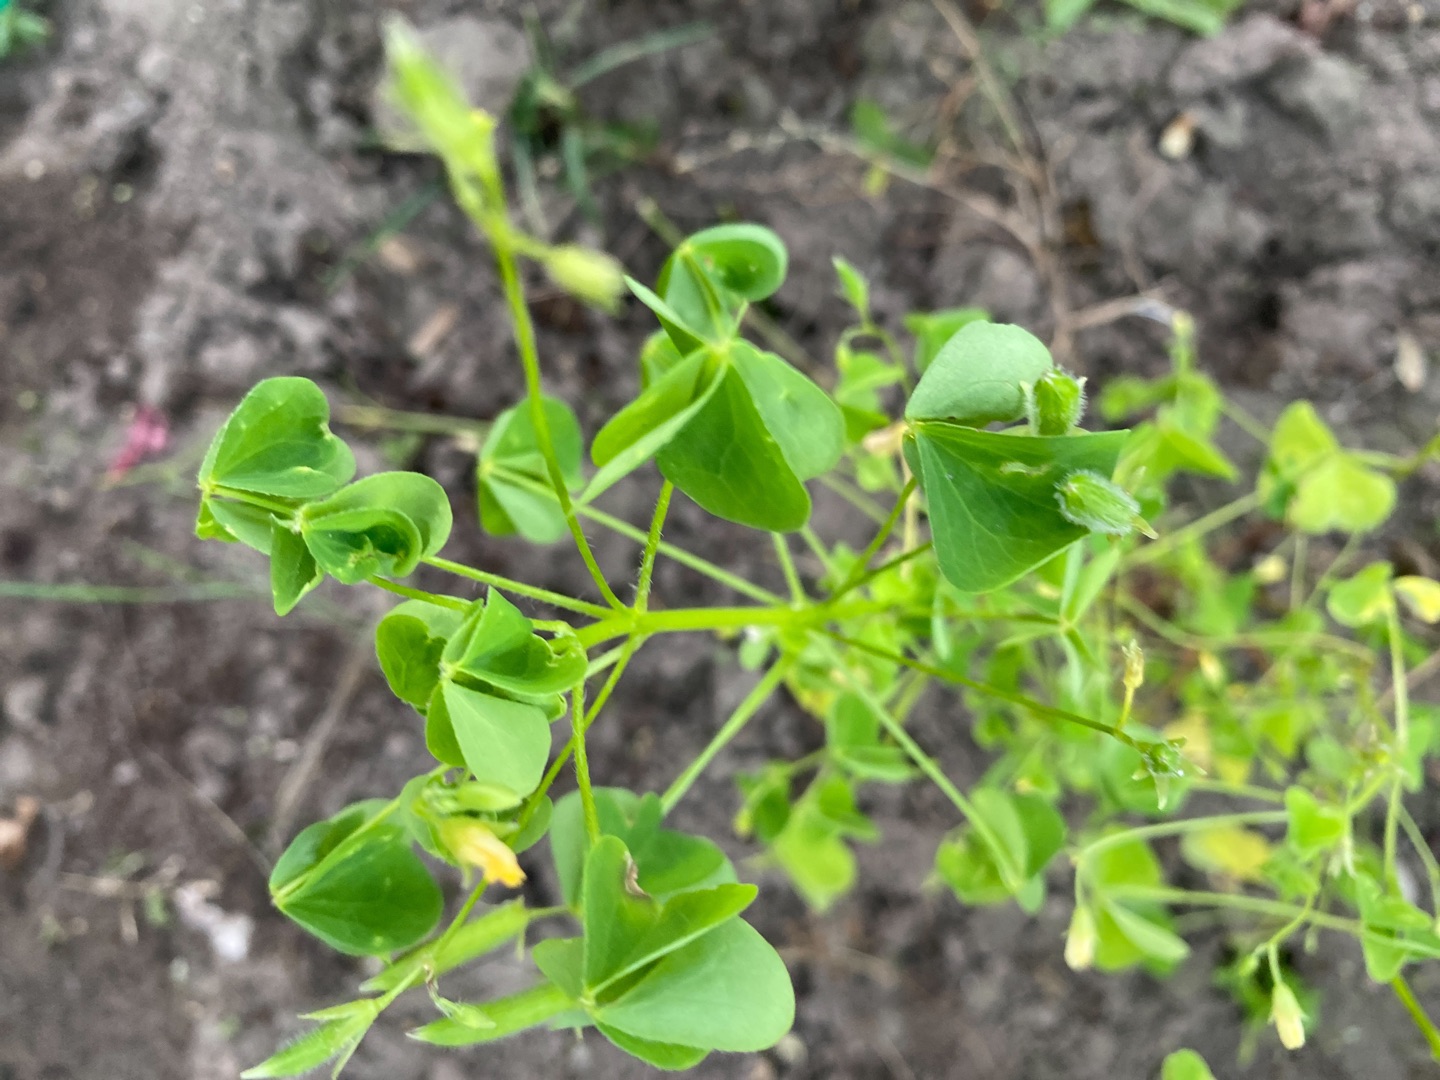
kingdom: Plantae
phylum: Tracheophyta
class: Magnoliopsida
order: Oxalidales
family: Oxalidaceae
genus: Oxalis
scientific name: Oxalis stricta
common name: Rank surkløver
